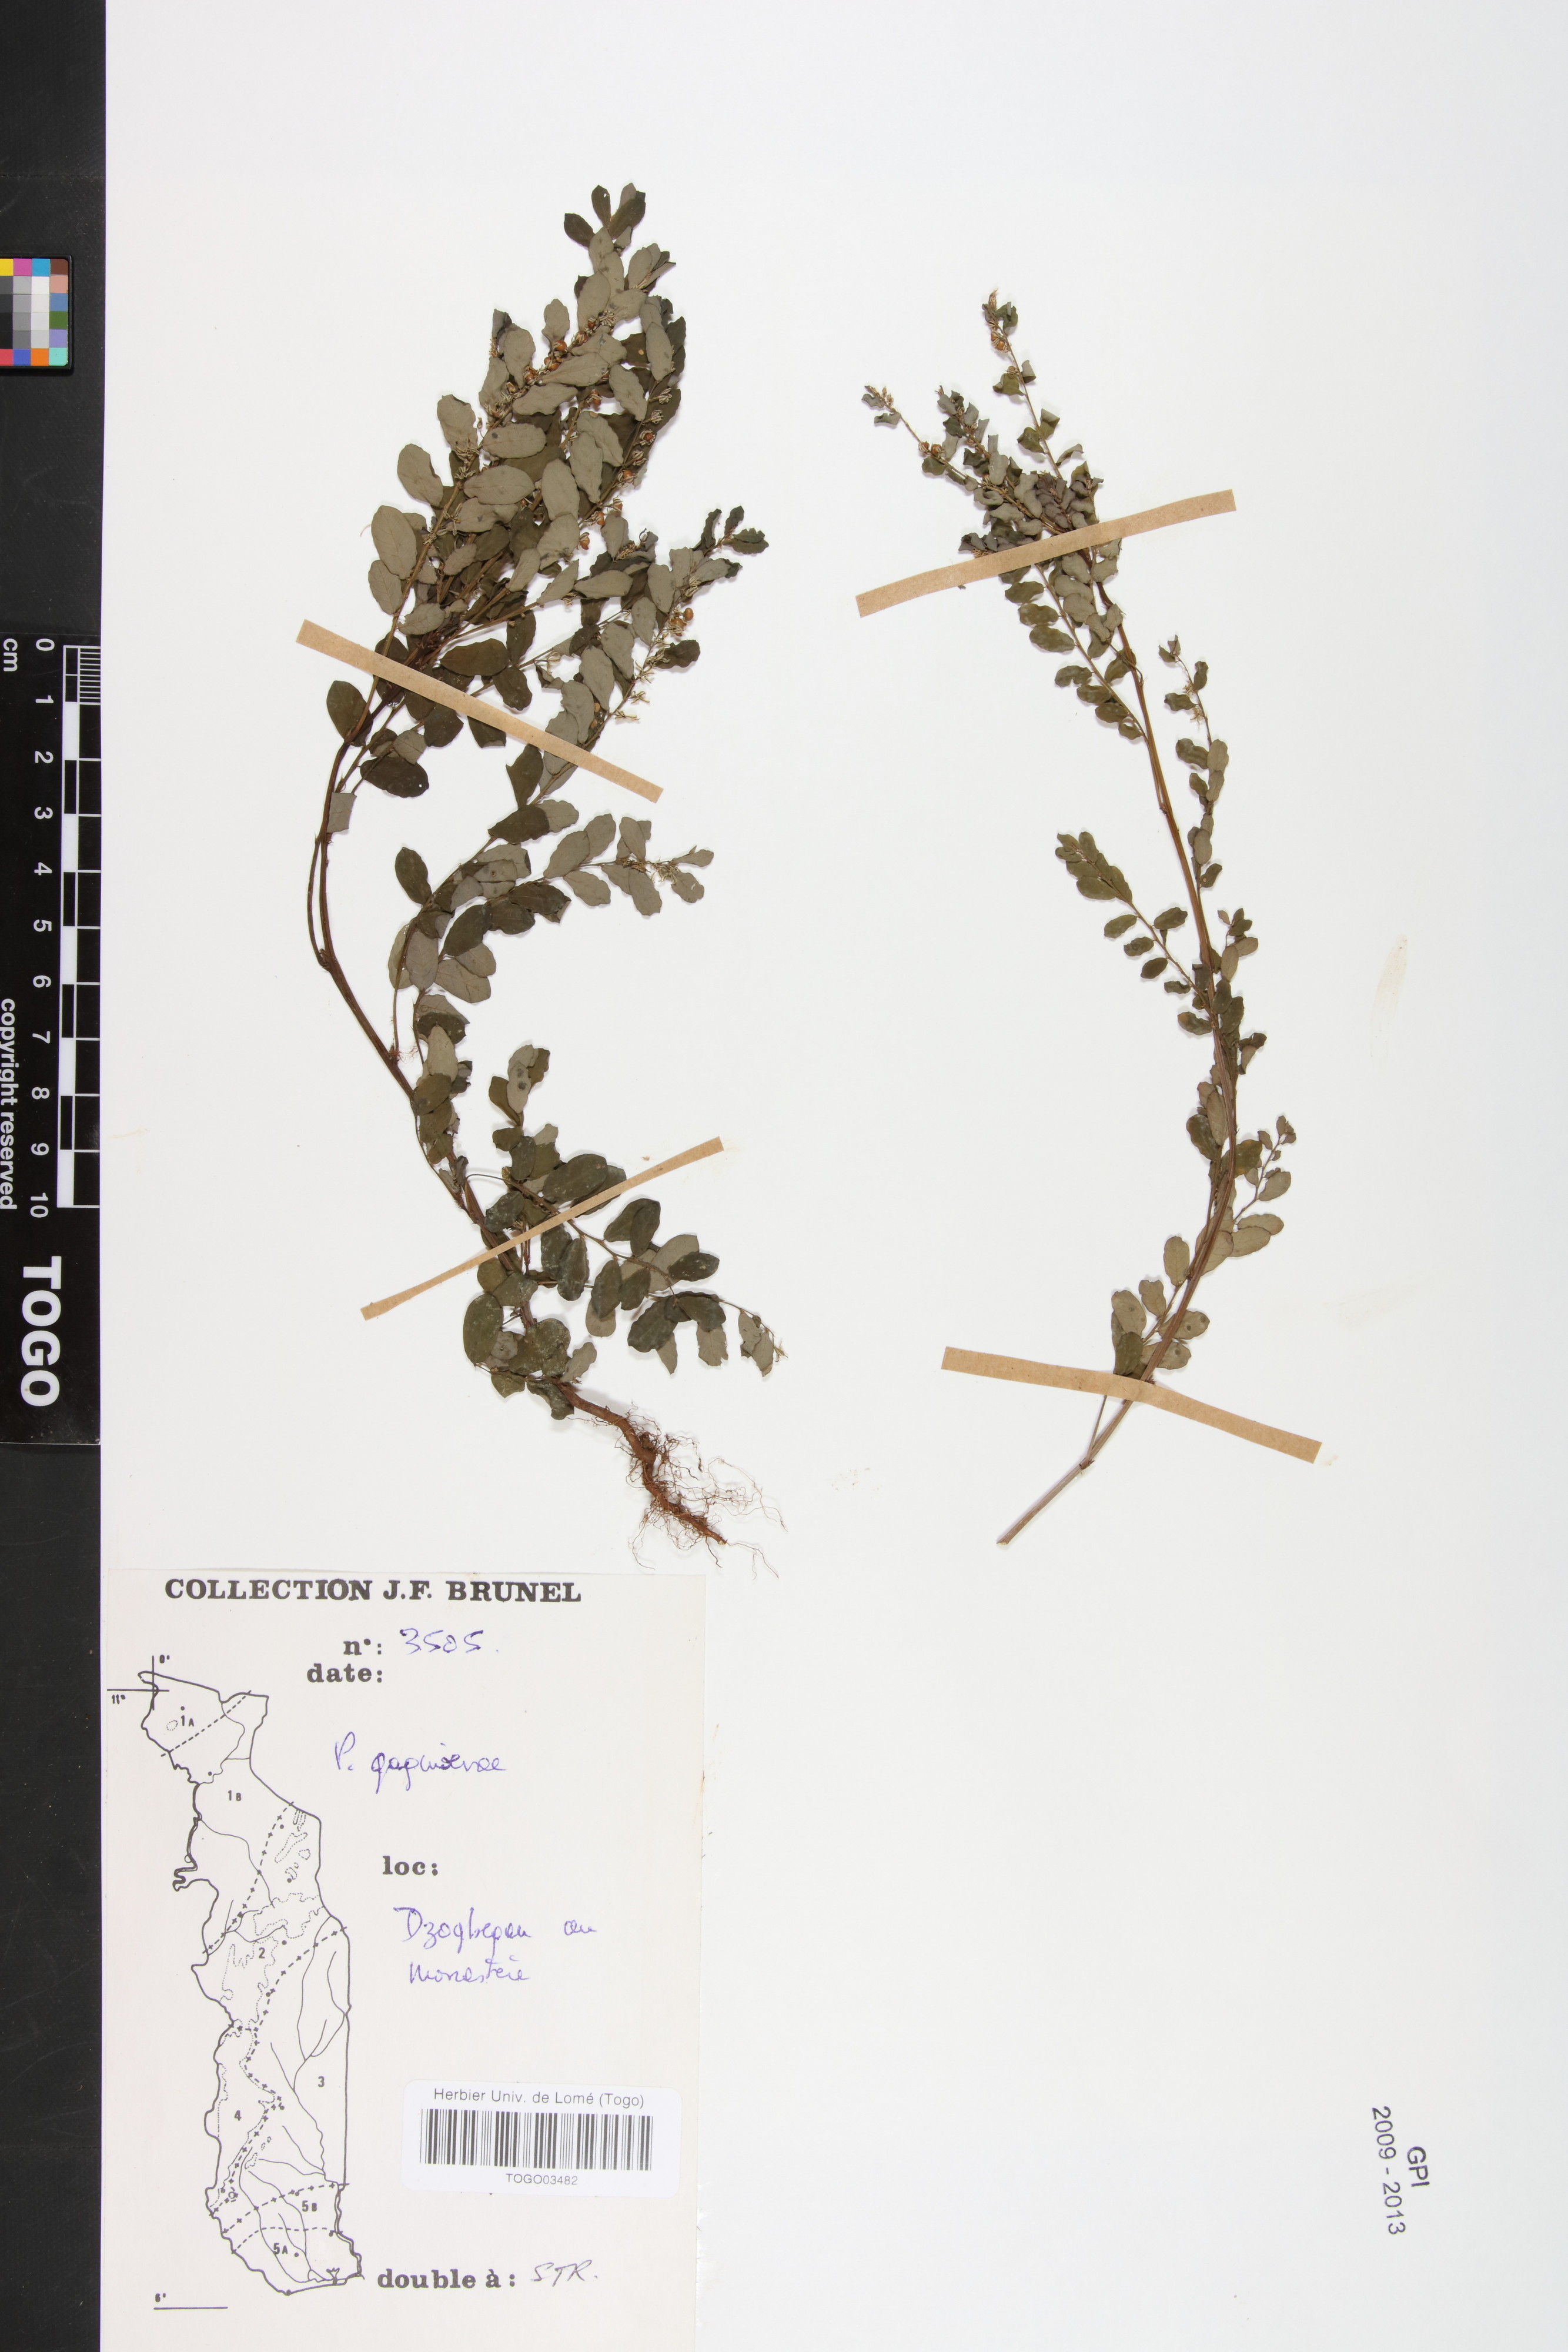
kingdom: Plantae
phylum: Tracheophyta
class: Magnoliopsida
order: Malpighiales
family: Phyllanthaceae
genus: Phyllanthus
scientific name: Phyllanthus gagnioevae
